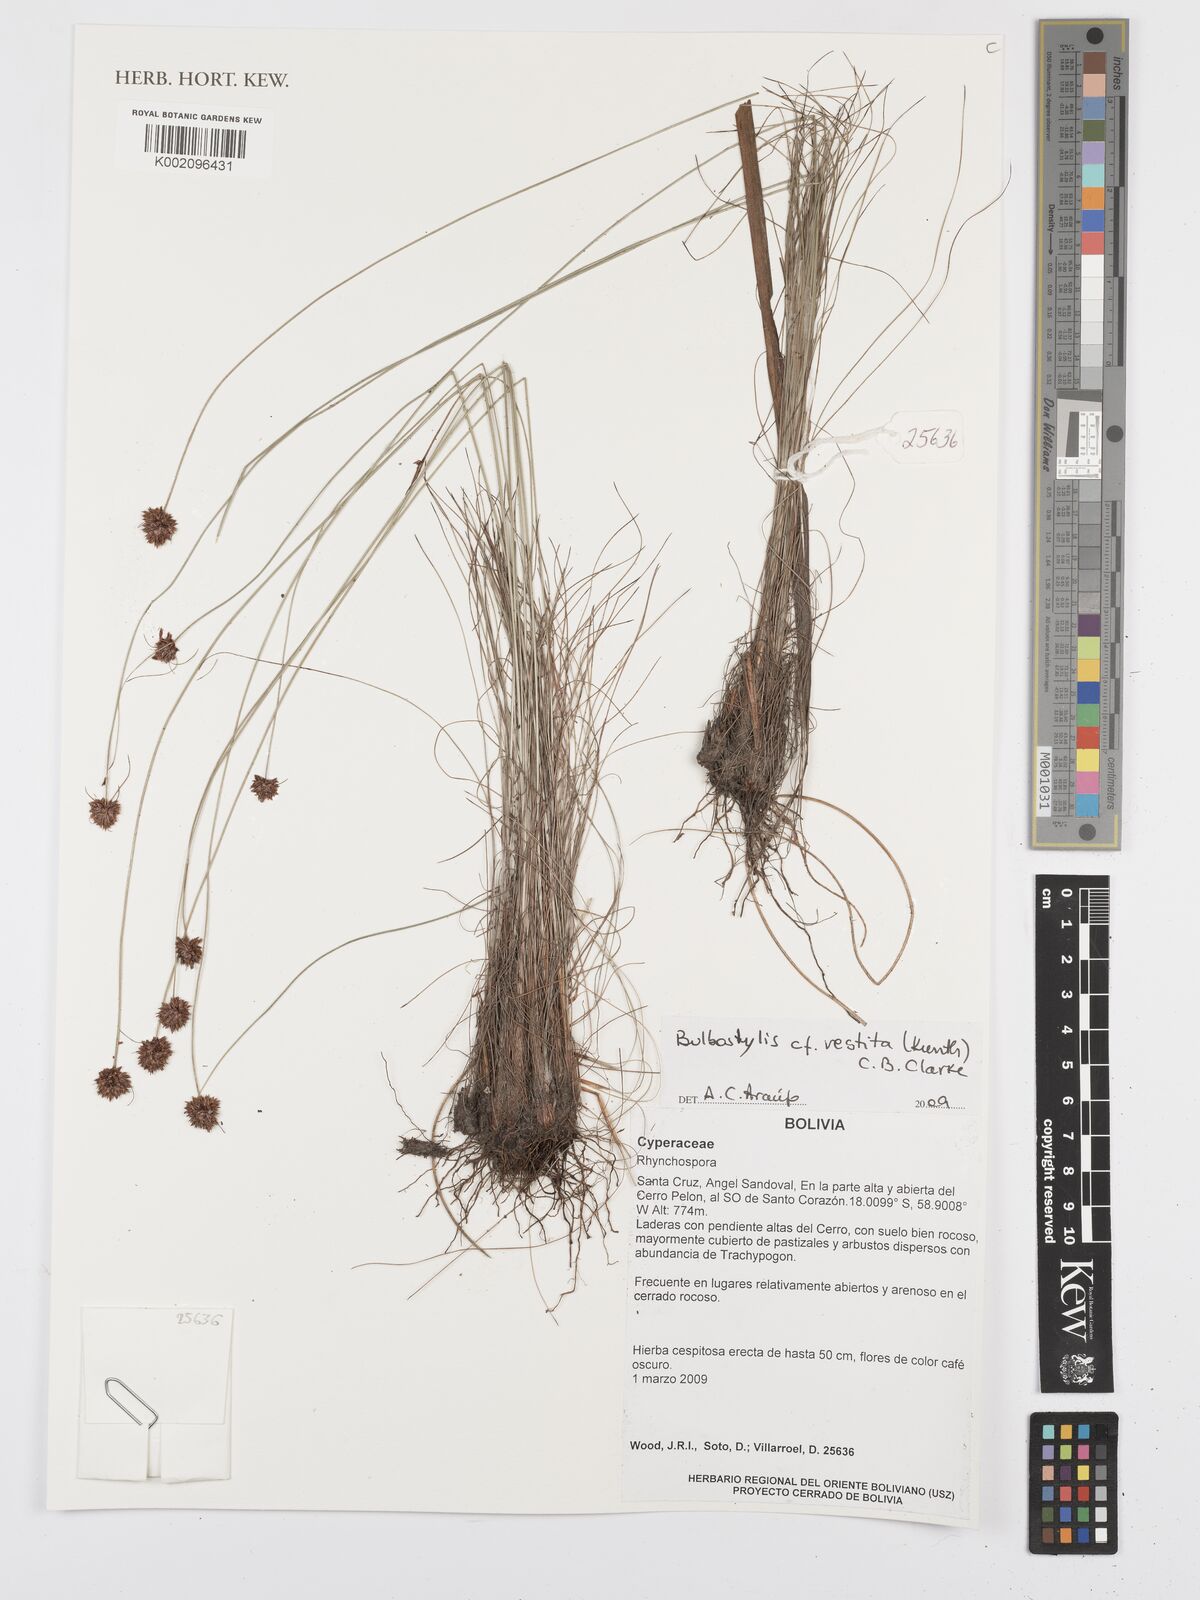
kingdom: Plantae
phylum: Tracheophyta
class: Liliopsida
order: Poales
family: Cyperaceae
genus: Bulbostylis
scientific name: Bulbostylis vestita
